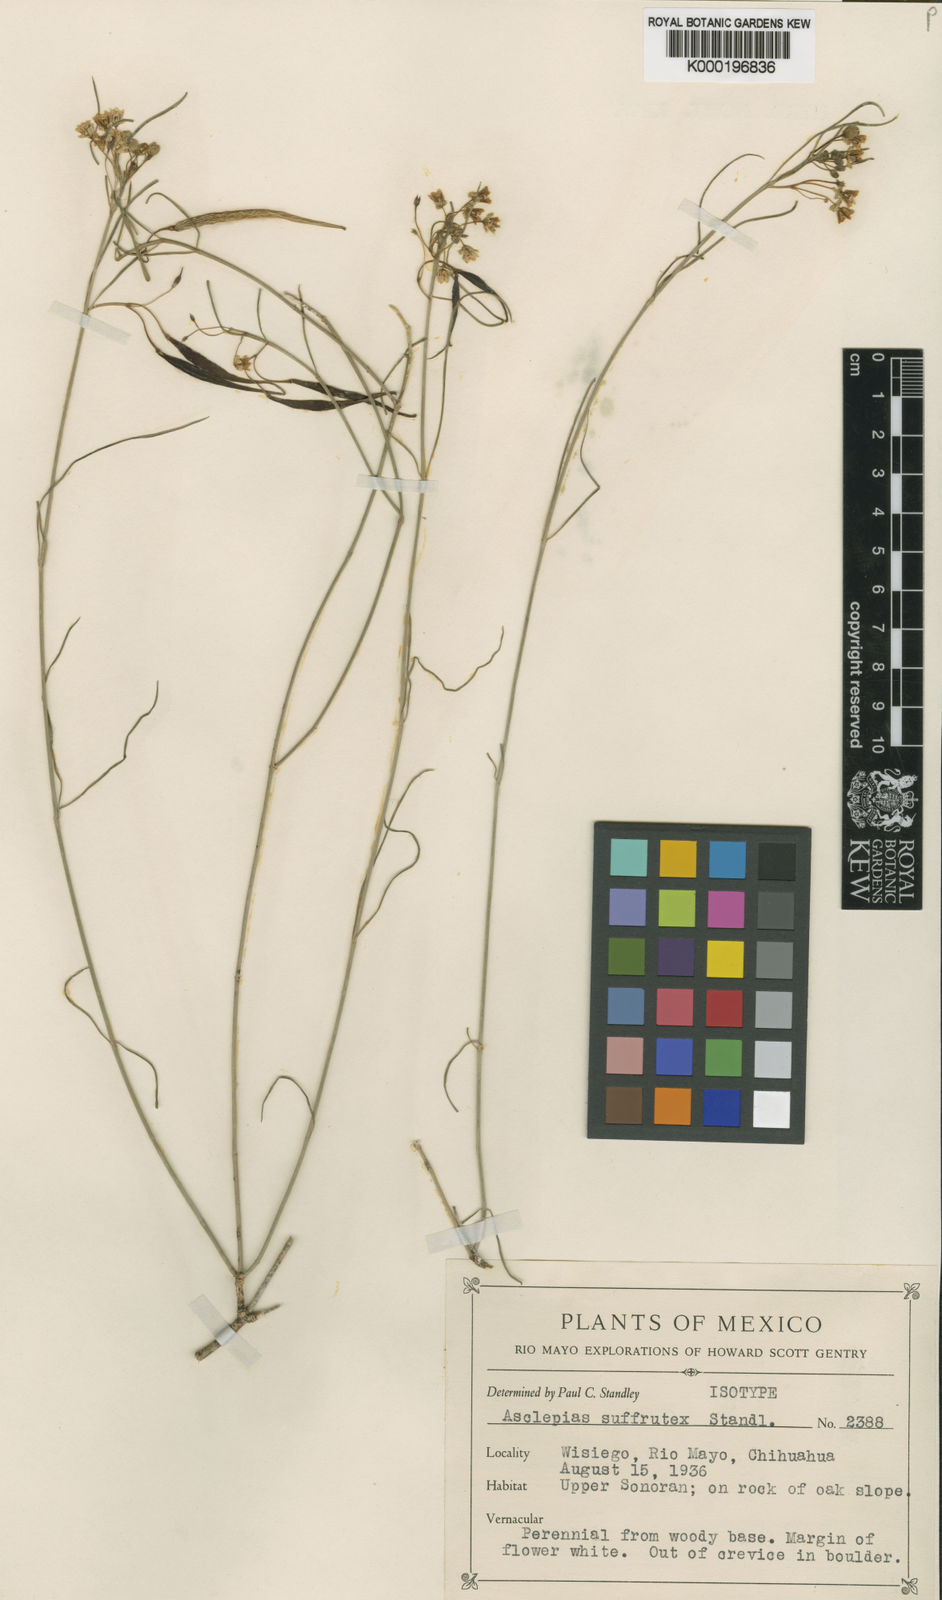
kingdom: Plantae
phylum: Tracheophyta
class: Magnoliopsida
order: Gentianales
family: Apocynaceae
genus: Asclepias
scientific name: Asclepias leptopus
